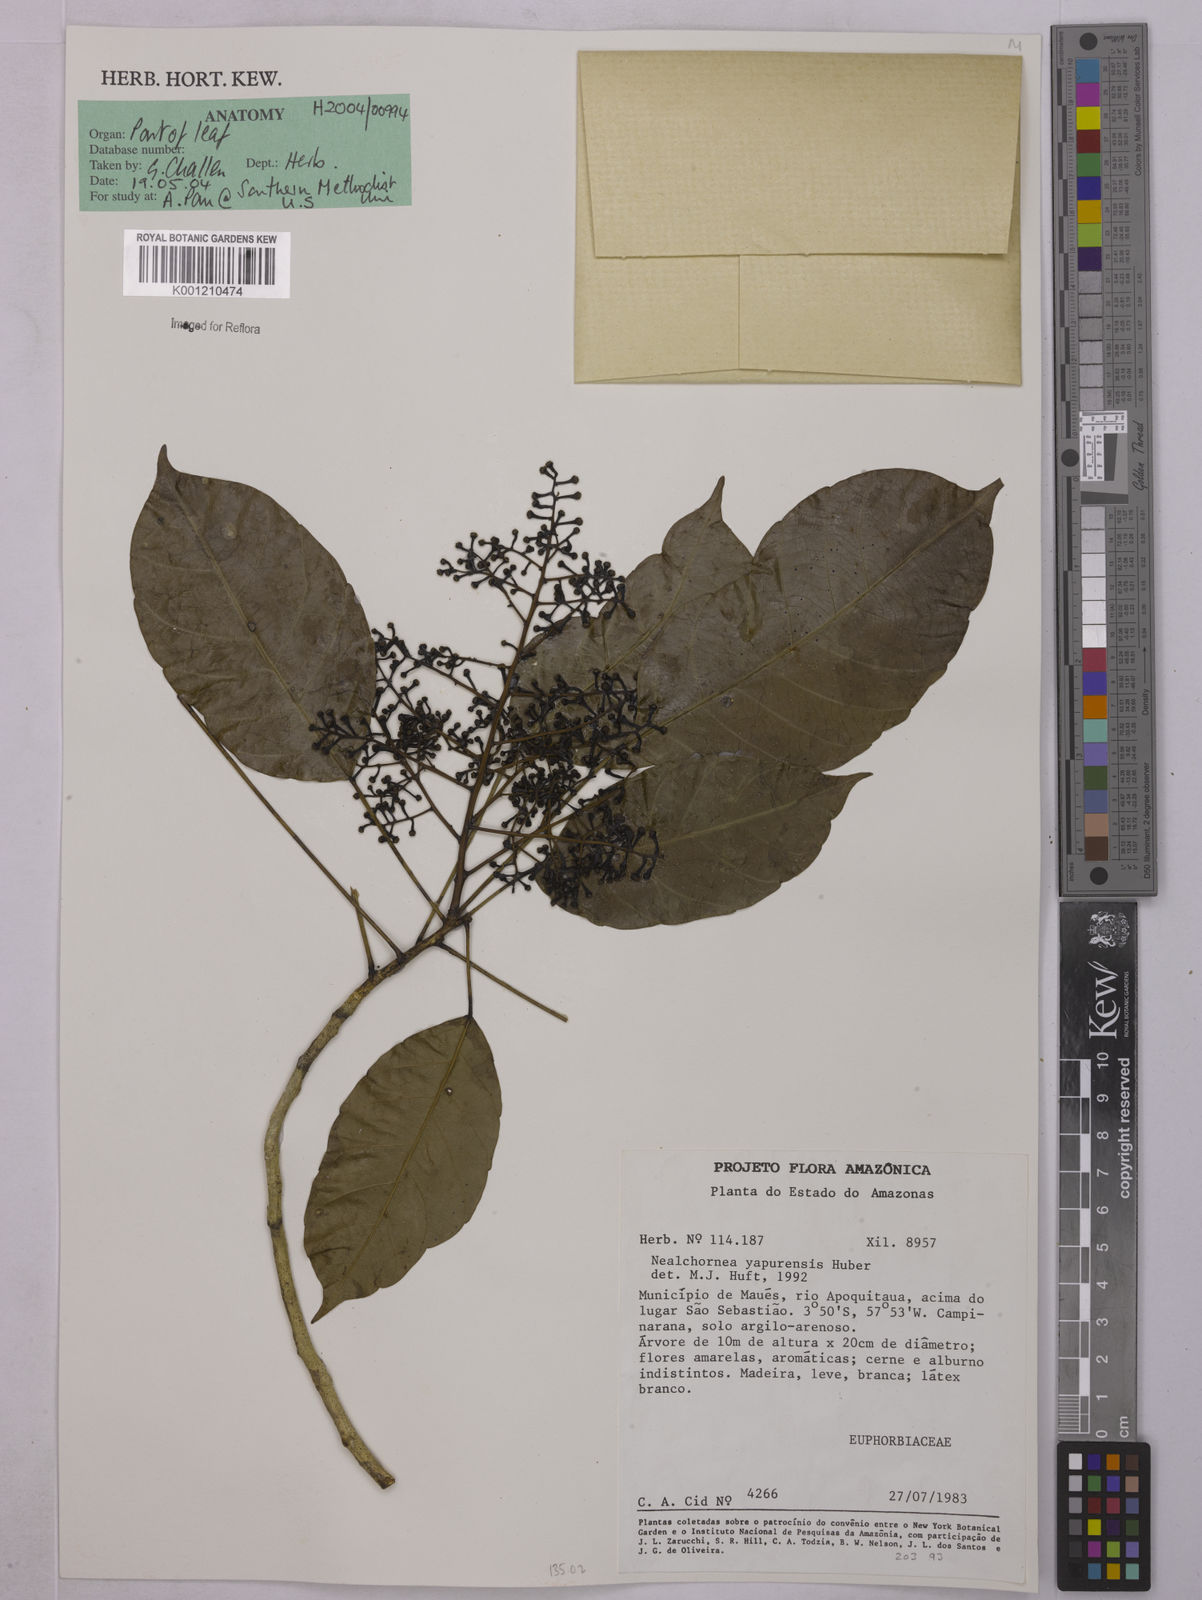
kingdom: Plantae
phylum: Tracheophyta
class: Magnoliopsida
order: Malpighiales
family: Euphorbiaceae
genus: Nealchornea
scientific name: Nealchornea yapurensis
